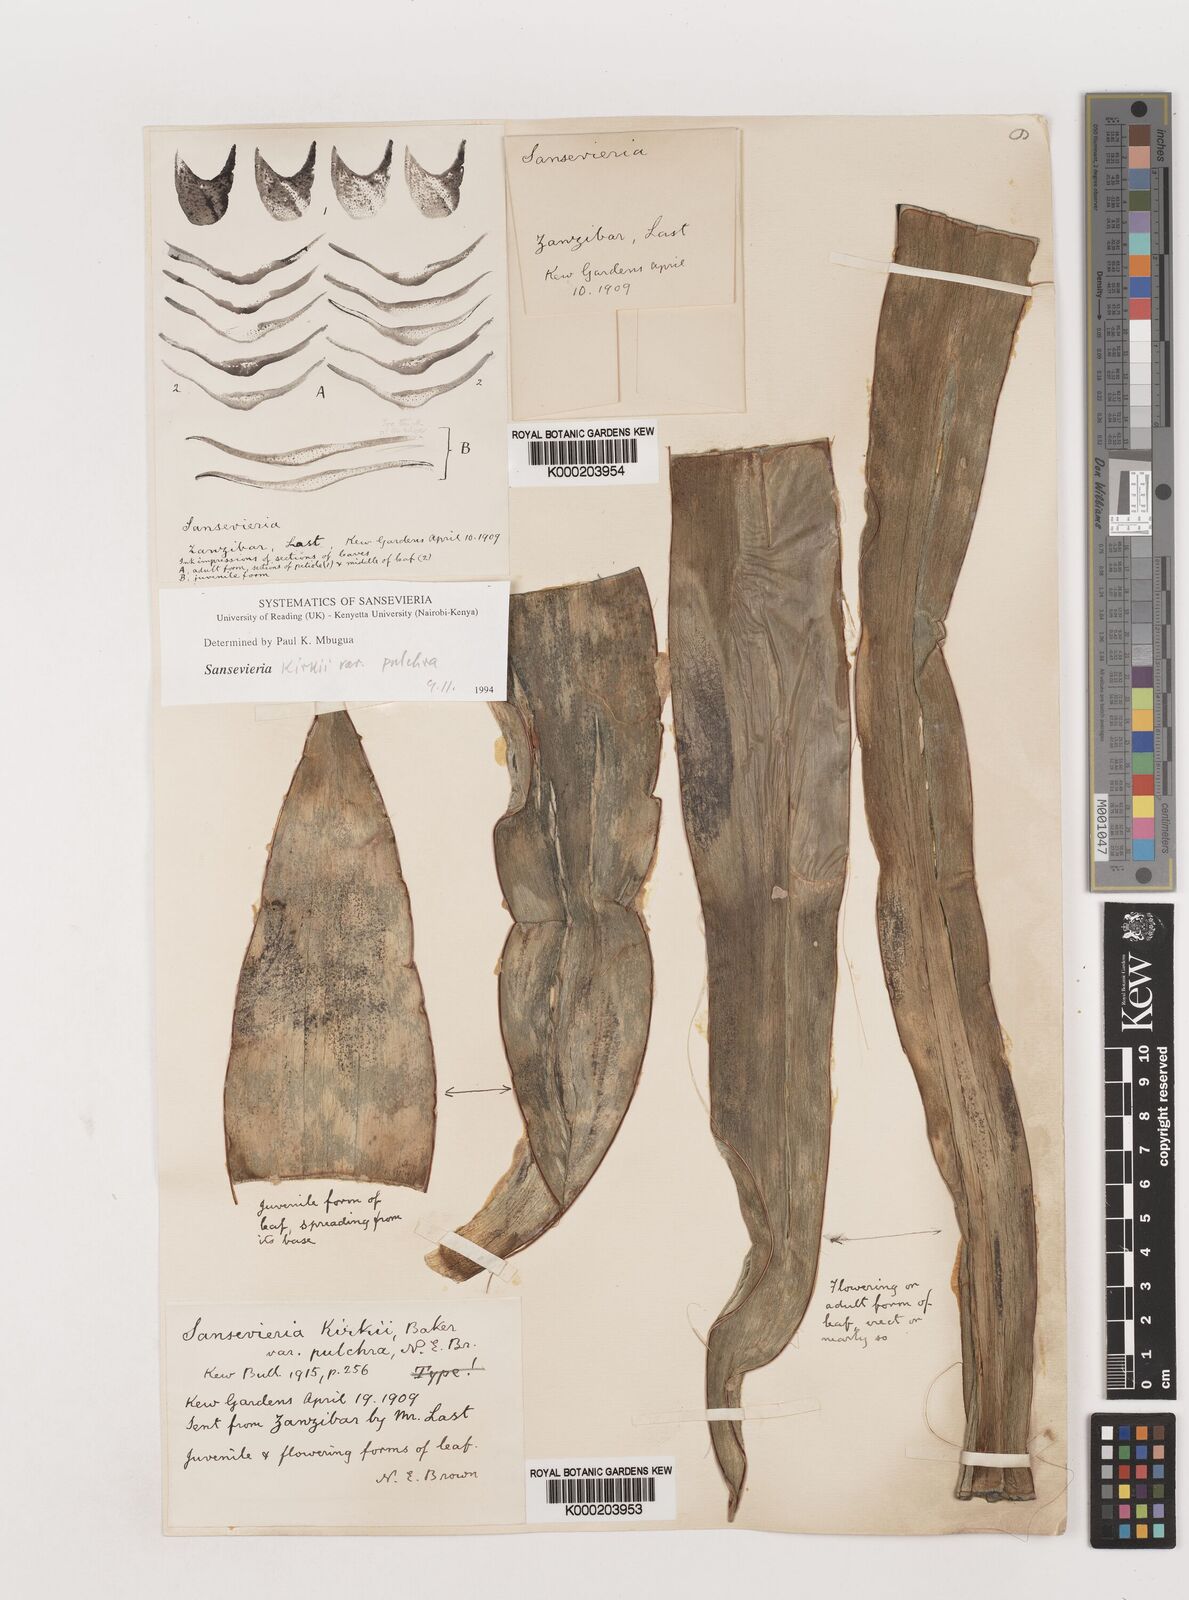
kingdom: Plantae
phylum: Tracheophyta
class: Liliopsida
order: Asparagales
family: Asparagaceae
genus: Dracaena
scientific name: Dracaena pethera
